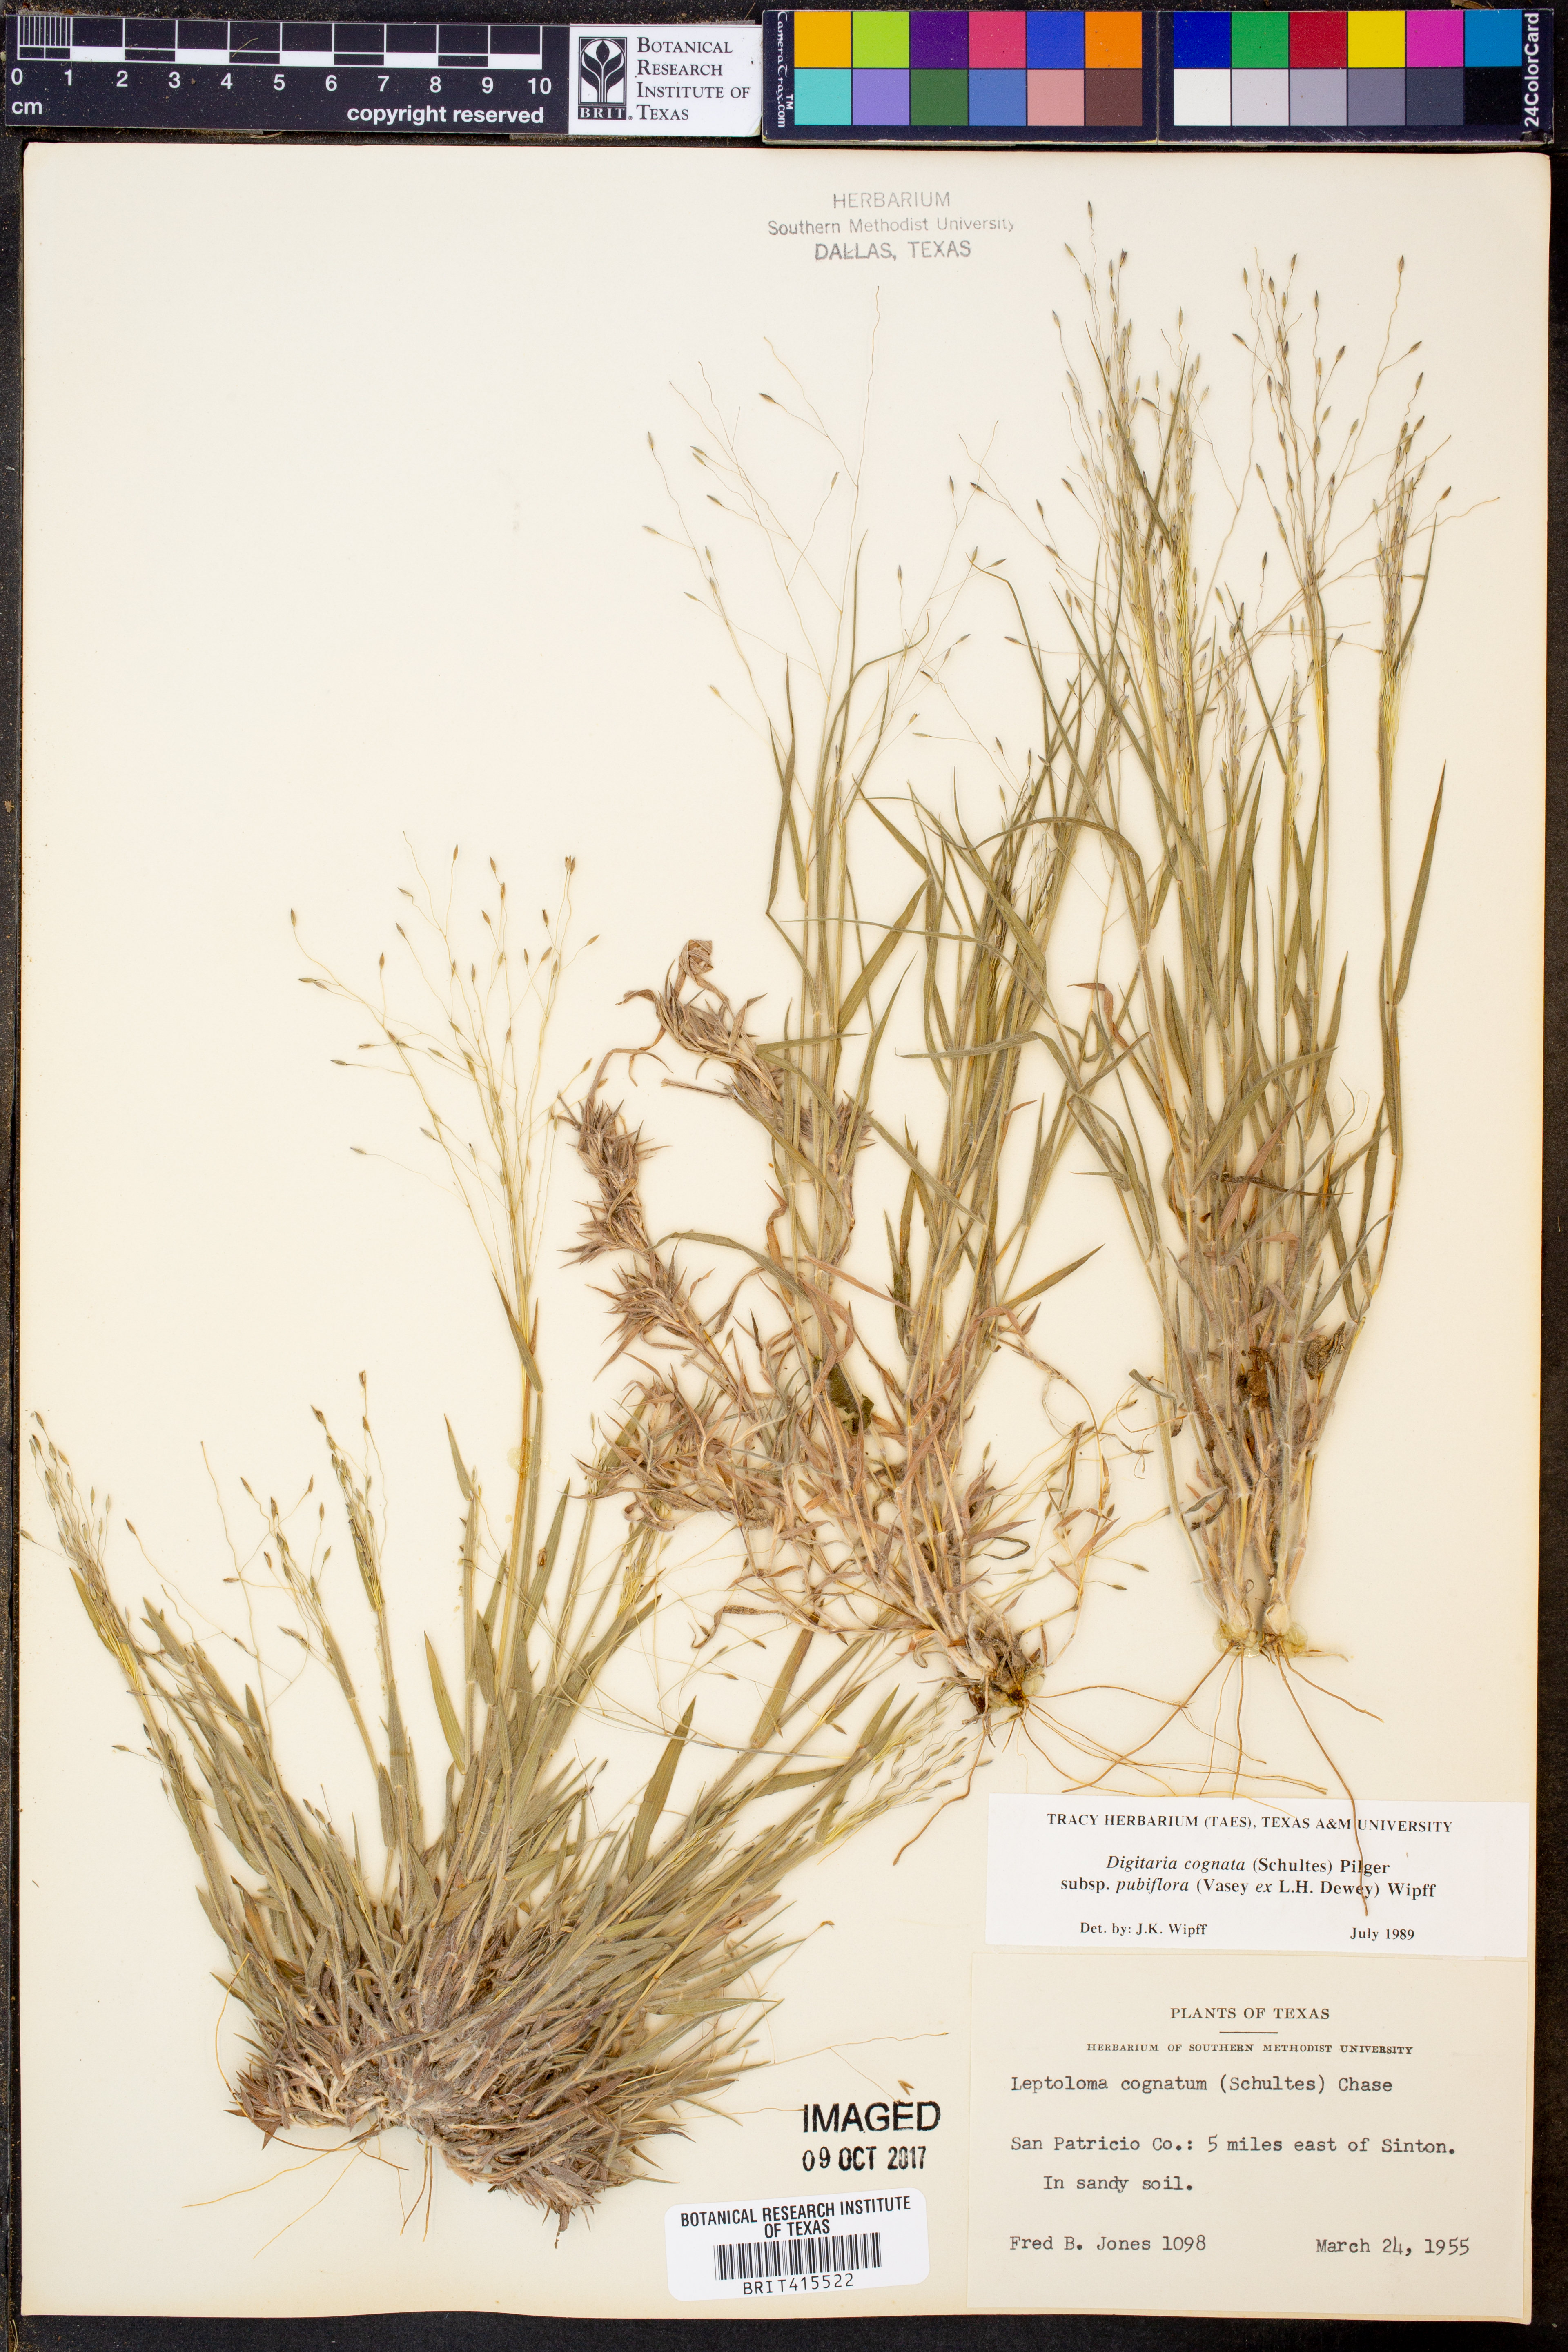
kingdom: Plantae
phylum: Tracheophyta
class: Liliopsida
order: Poales
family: Poaceae
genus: Digitaria
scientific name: Digitaria cognata
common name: Fall witchgrass
